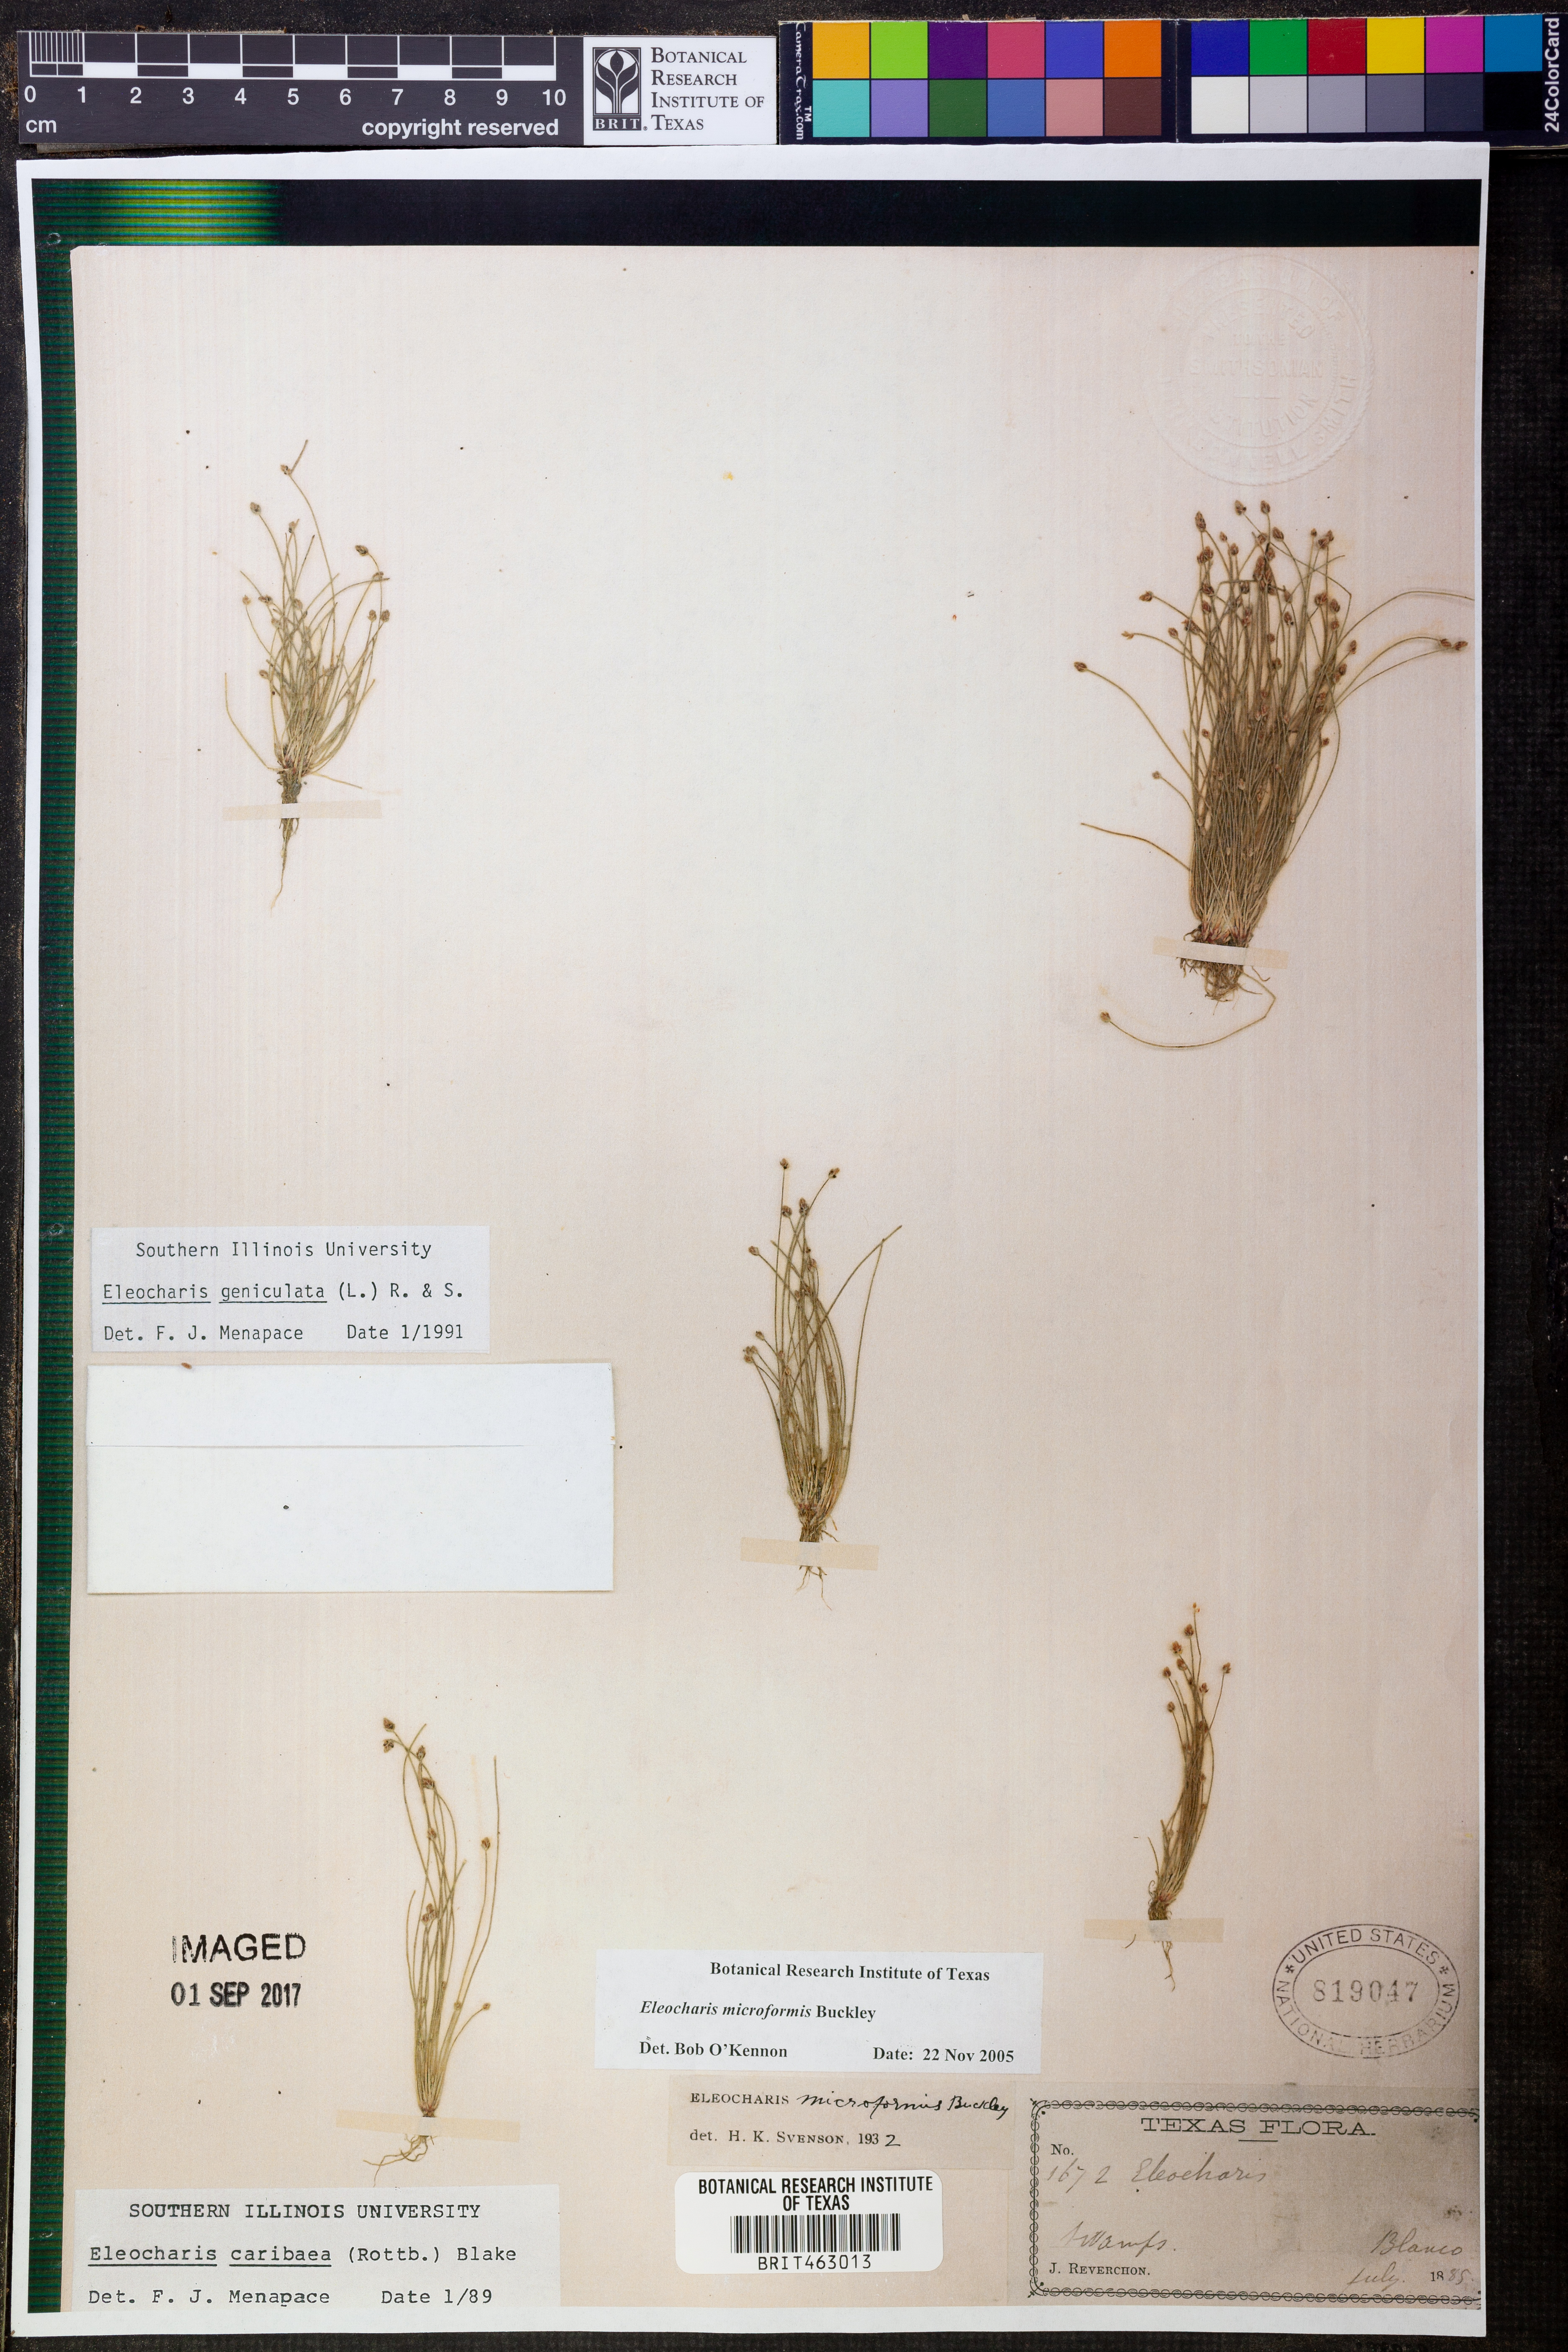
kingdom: Plantae
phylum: Tracheophyta
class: Liliopsida
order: Poales
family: Cyperaceae
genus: Eleocharis
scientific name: Eleocharis microformis
